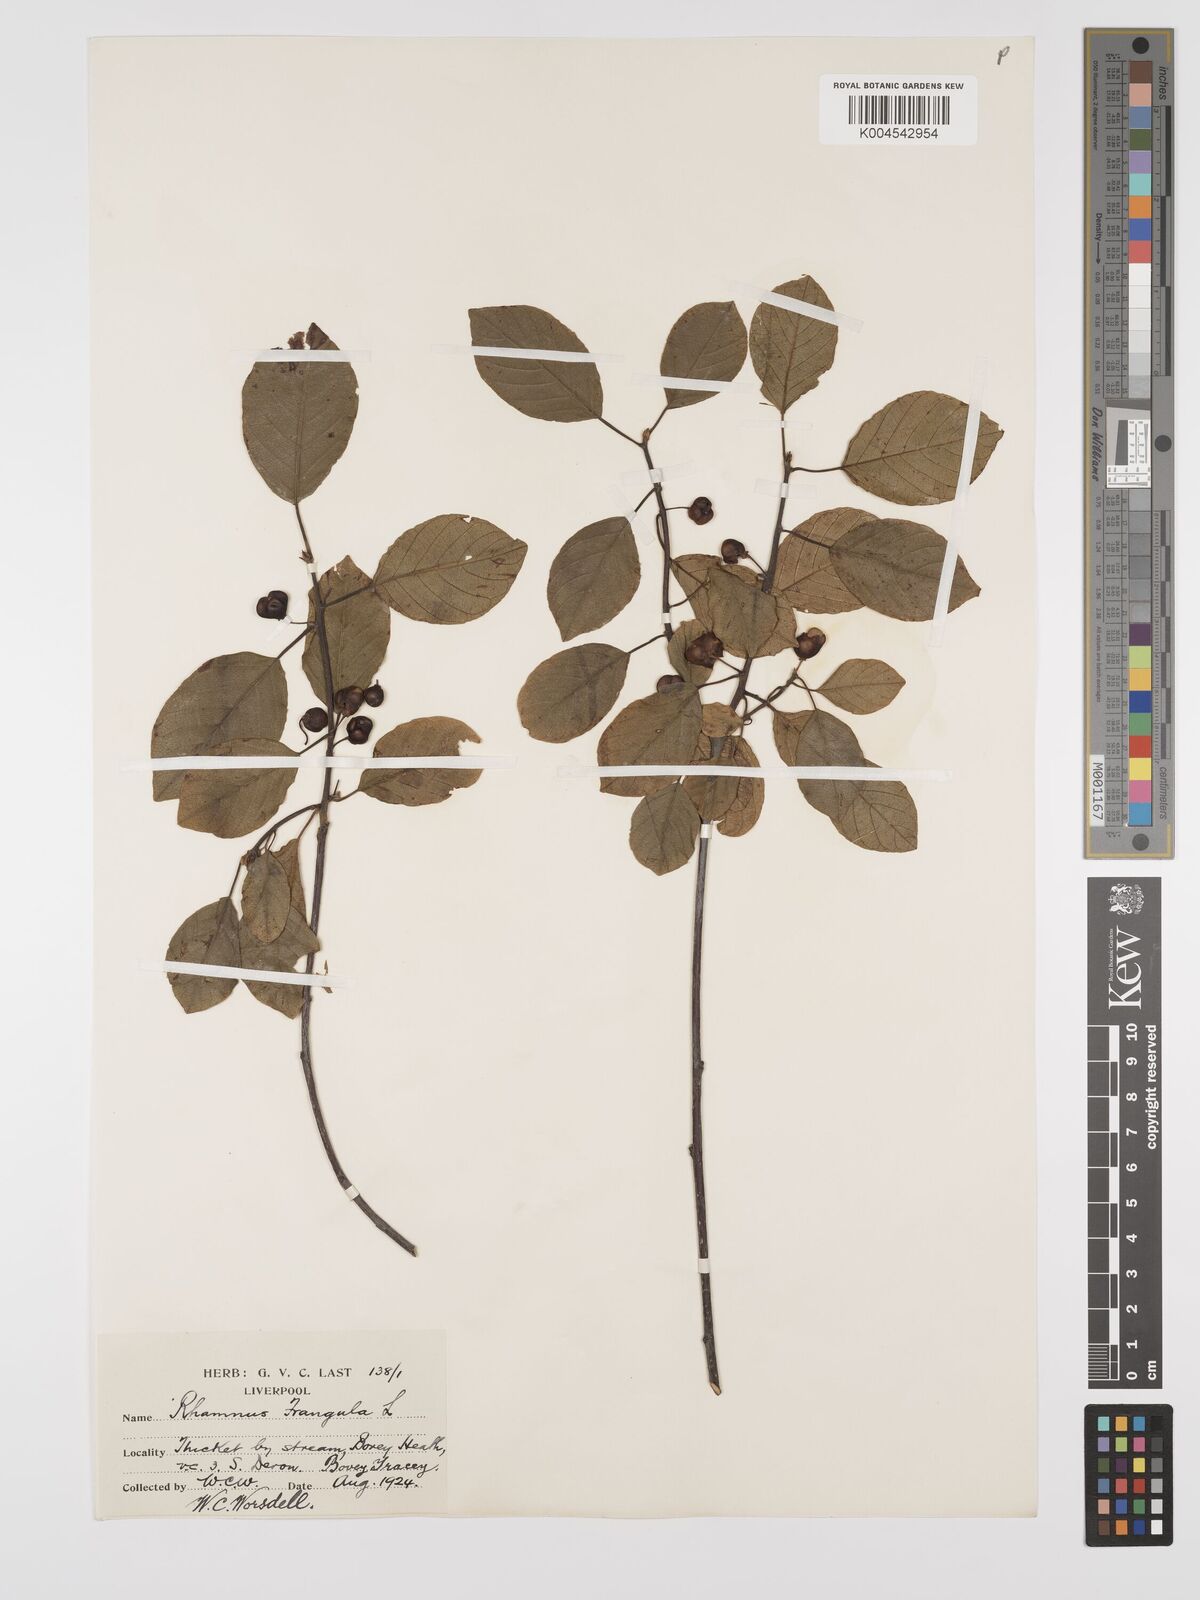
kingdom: Plantae
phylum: Tracheophyta
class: Magnoliopsida
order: Rosales
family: Rhamnaceae
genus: Frangula
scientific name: Frangula alnus
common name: Alder buckthorn
